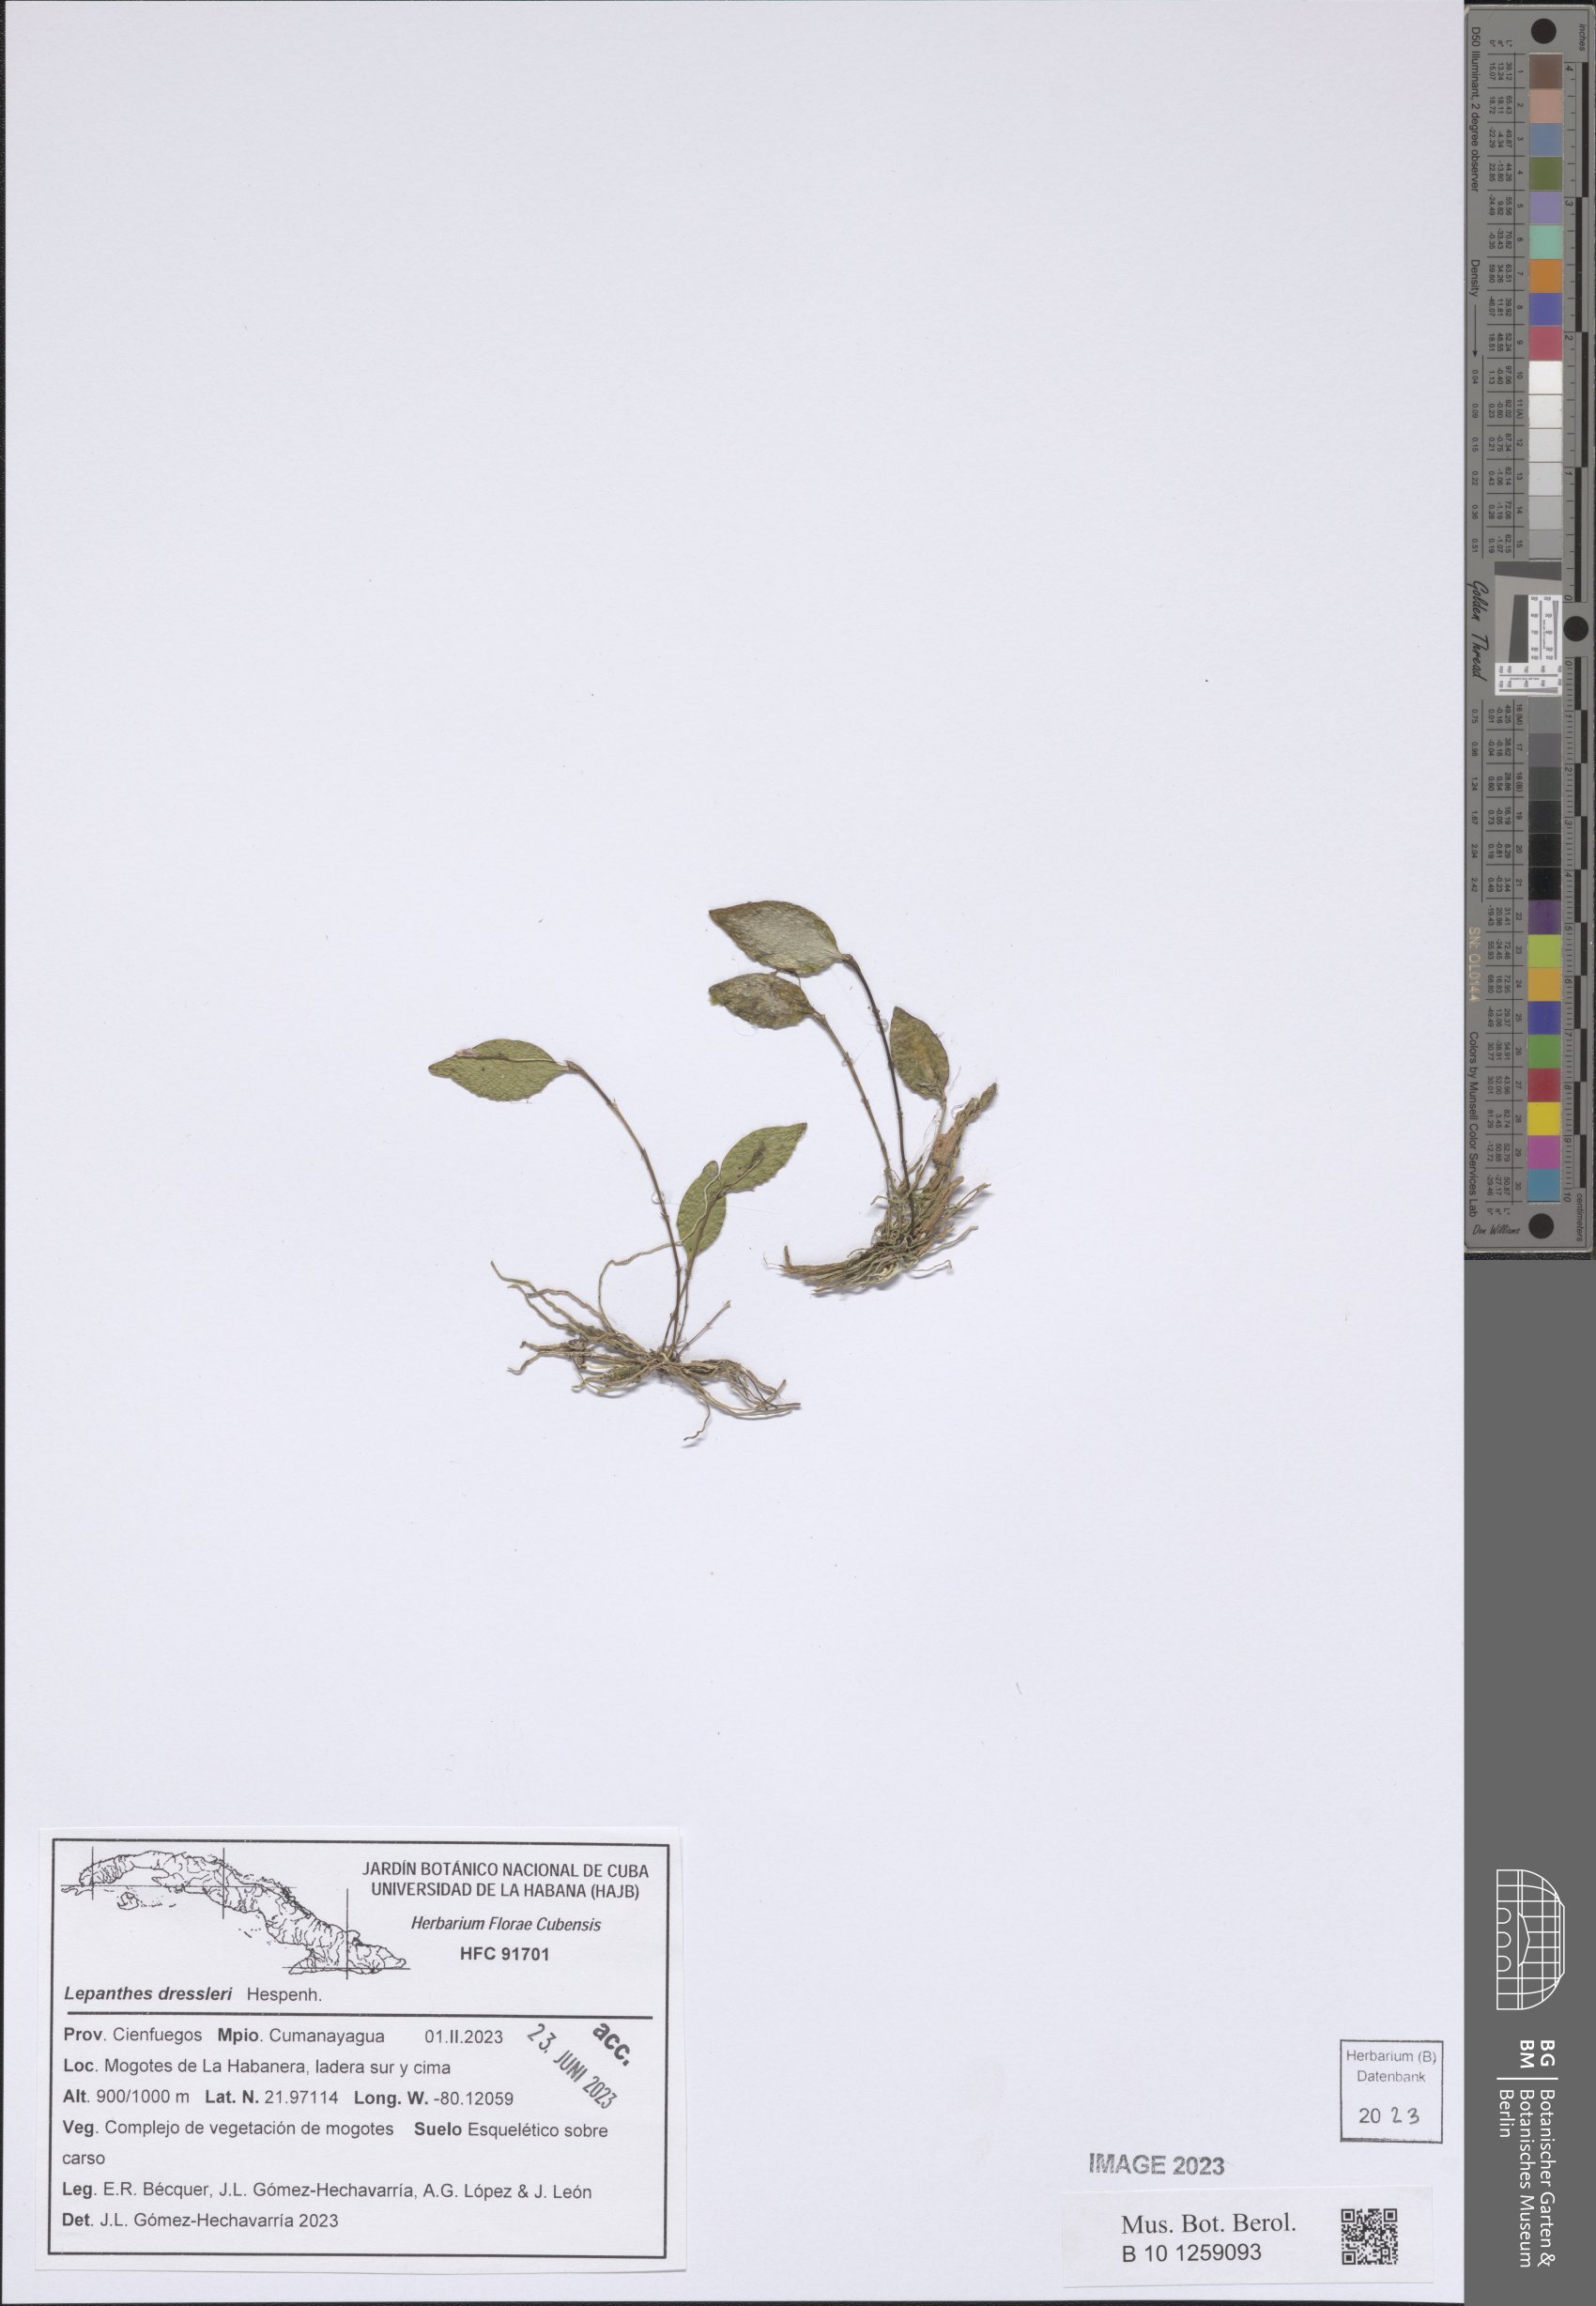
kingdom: Plantae
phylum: Tracheophyta
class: Liliopsida
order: Asparagales
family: Orchidaceae
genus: Lepanthes
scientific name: Lepanthes dressleri
